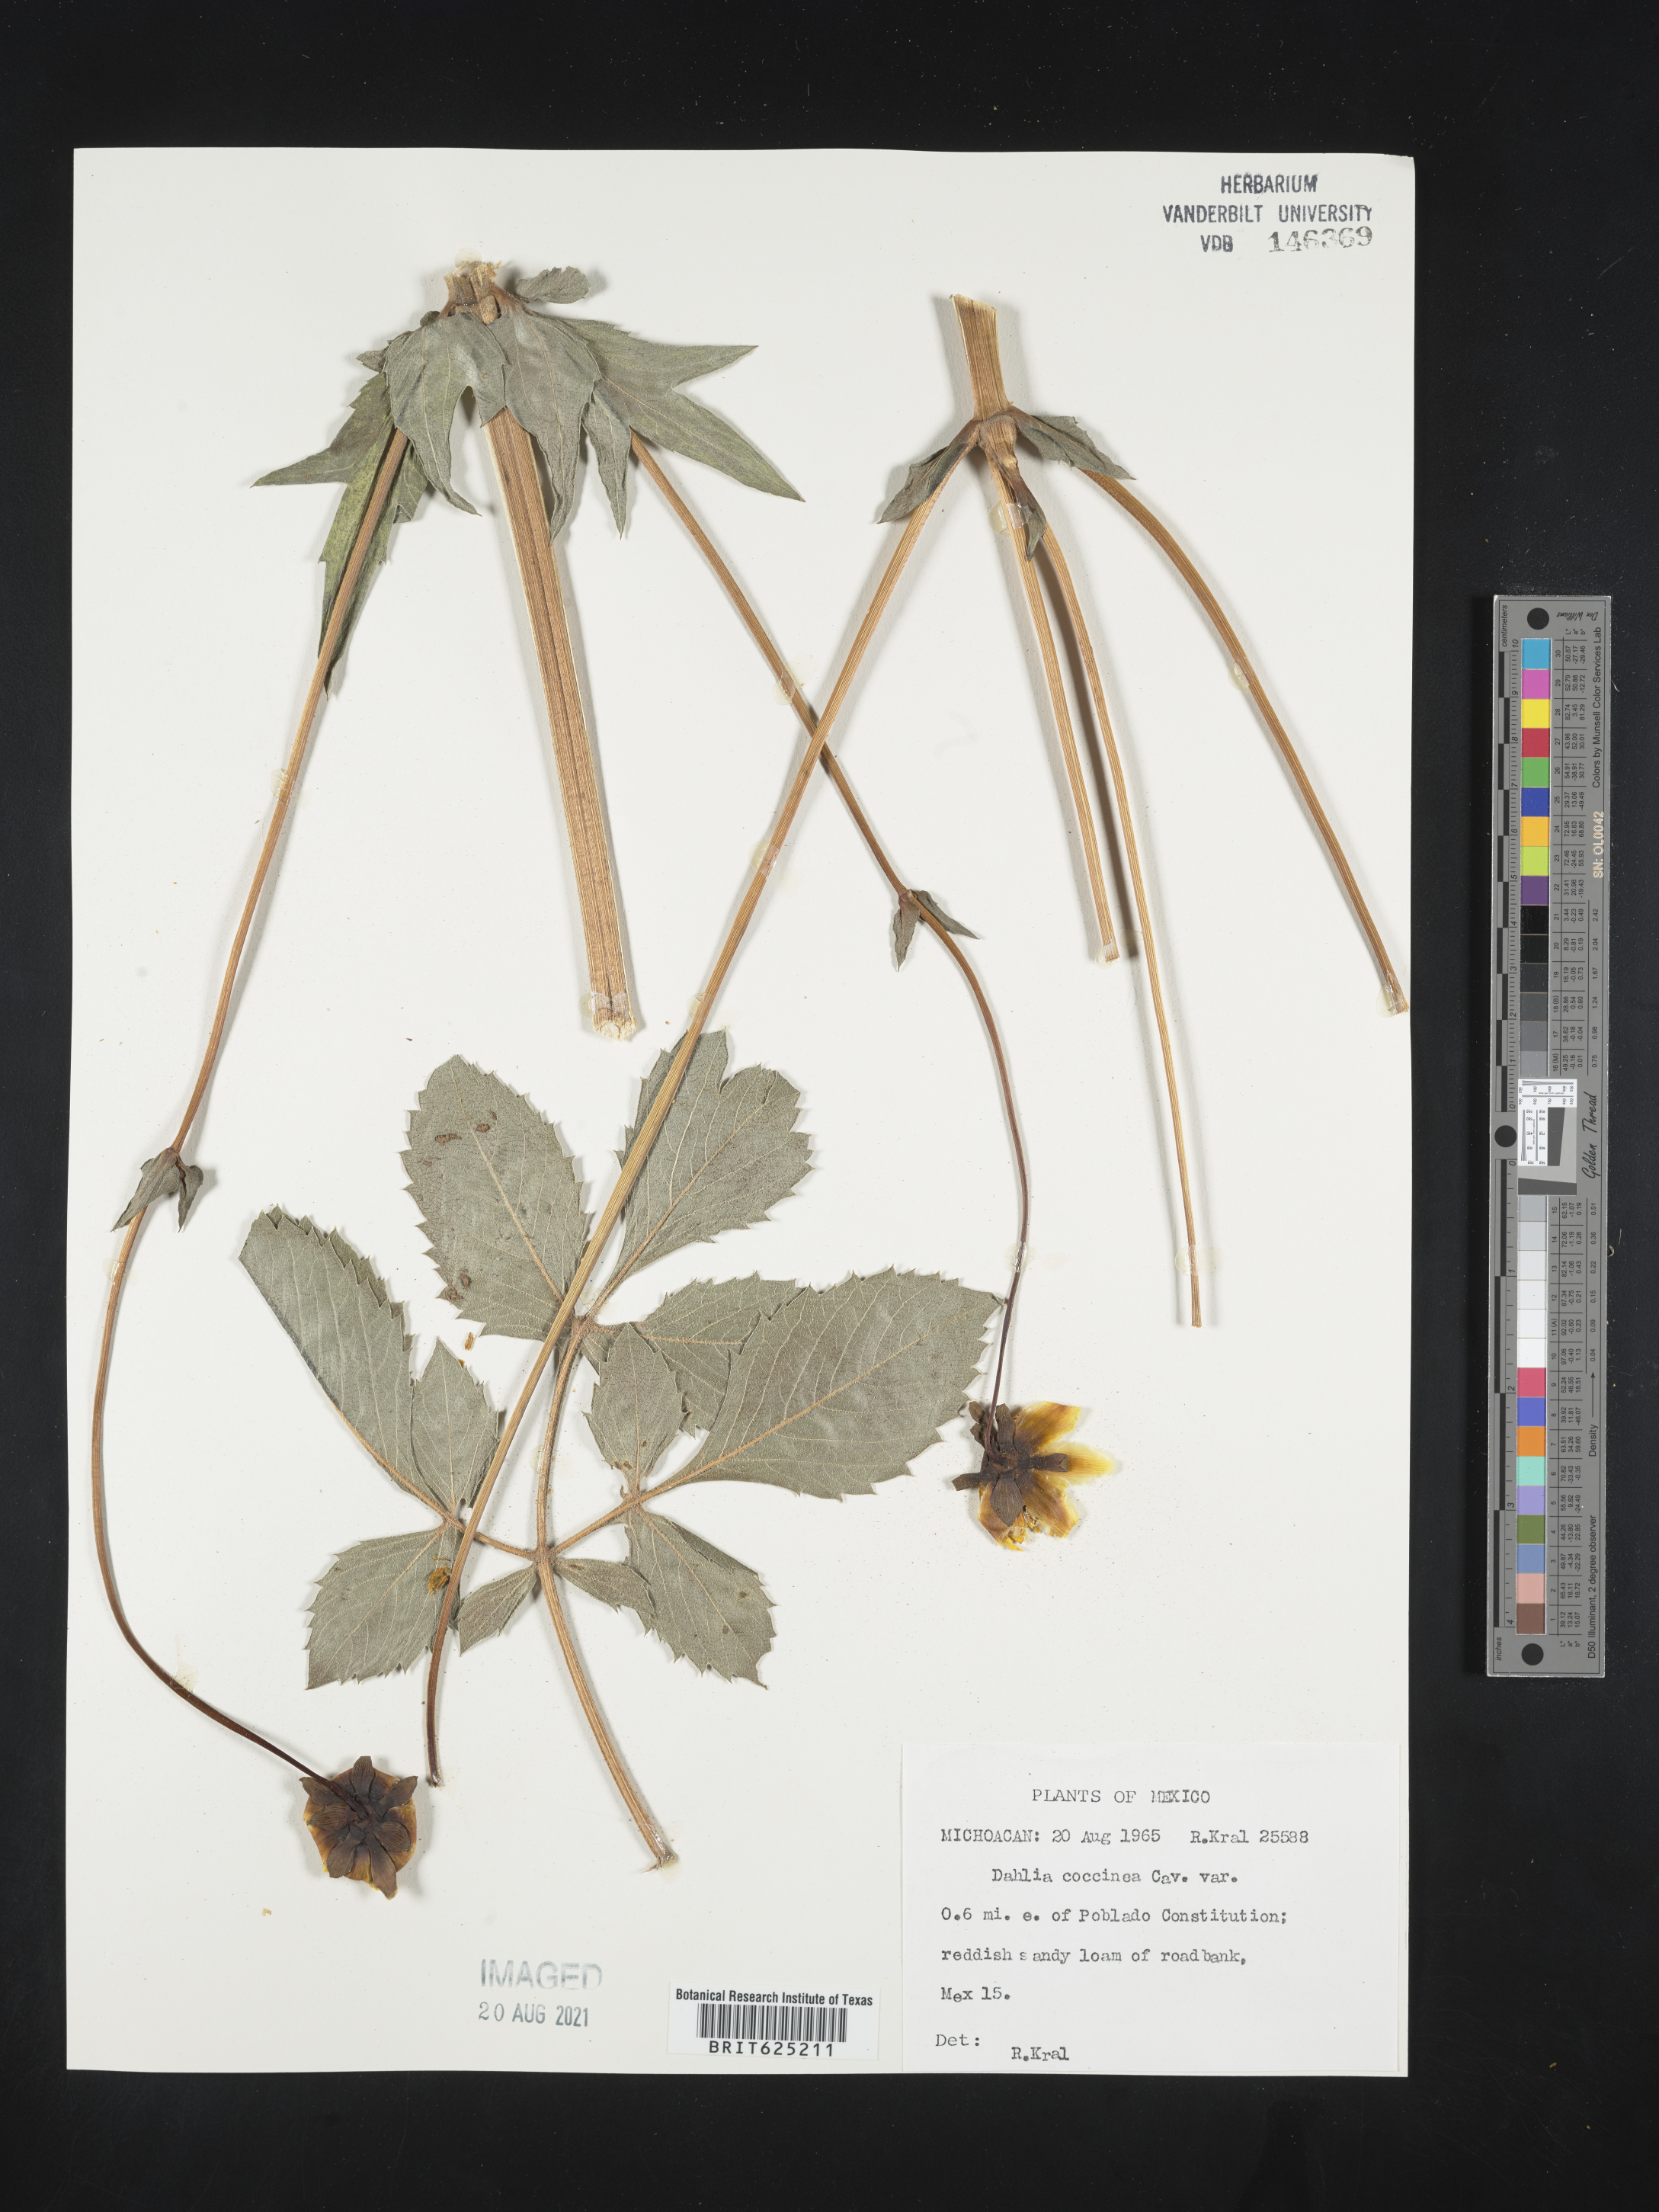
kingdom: Plantae
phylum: Tracheophyta
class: Magnoliopsida
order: Asterales
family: Asteraceae
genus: Dahlia
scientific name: Dahlia
